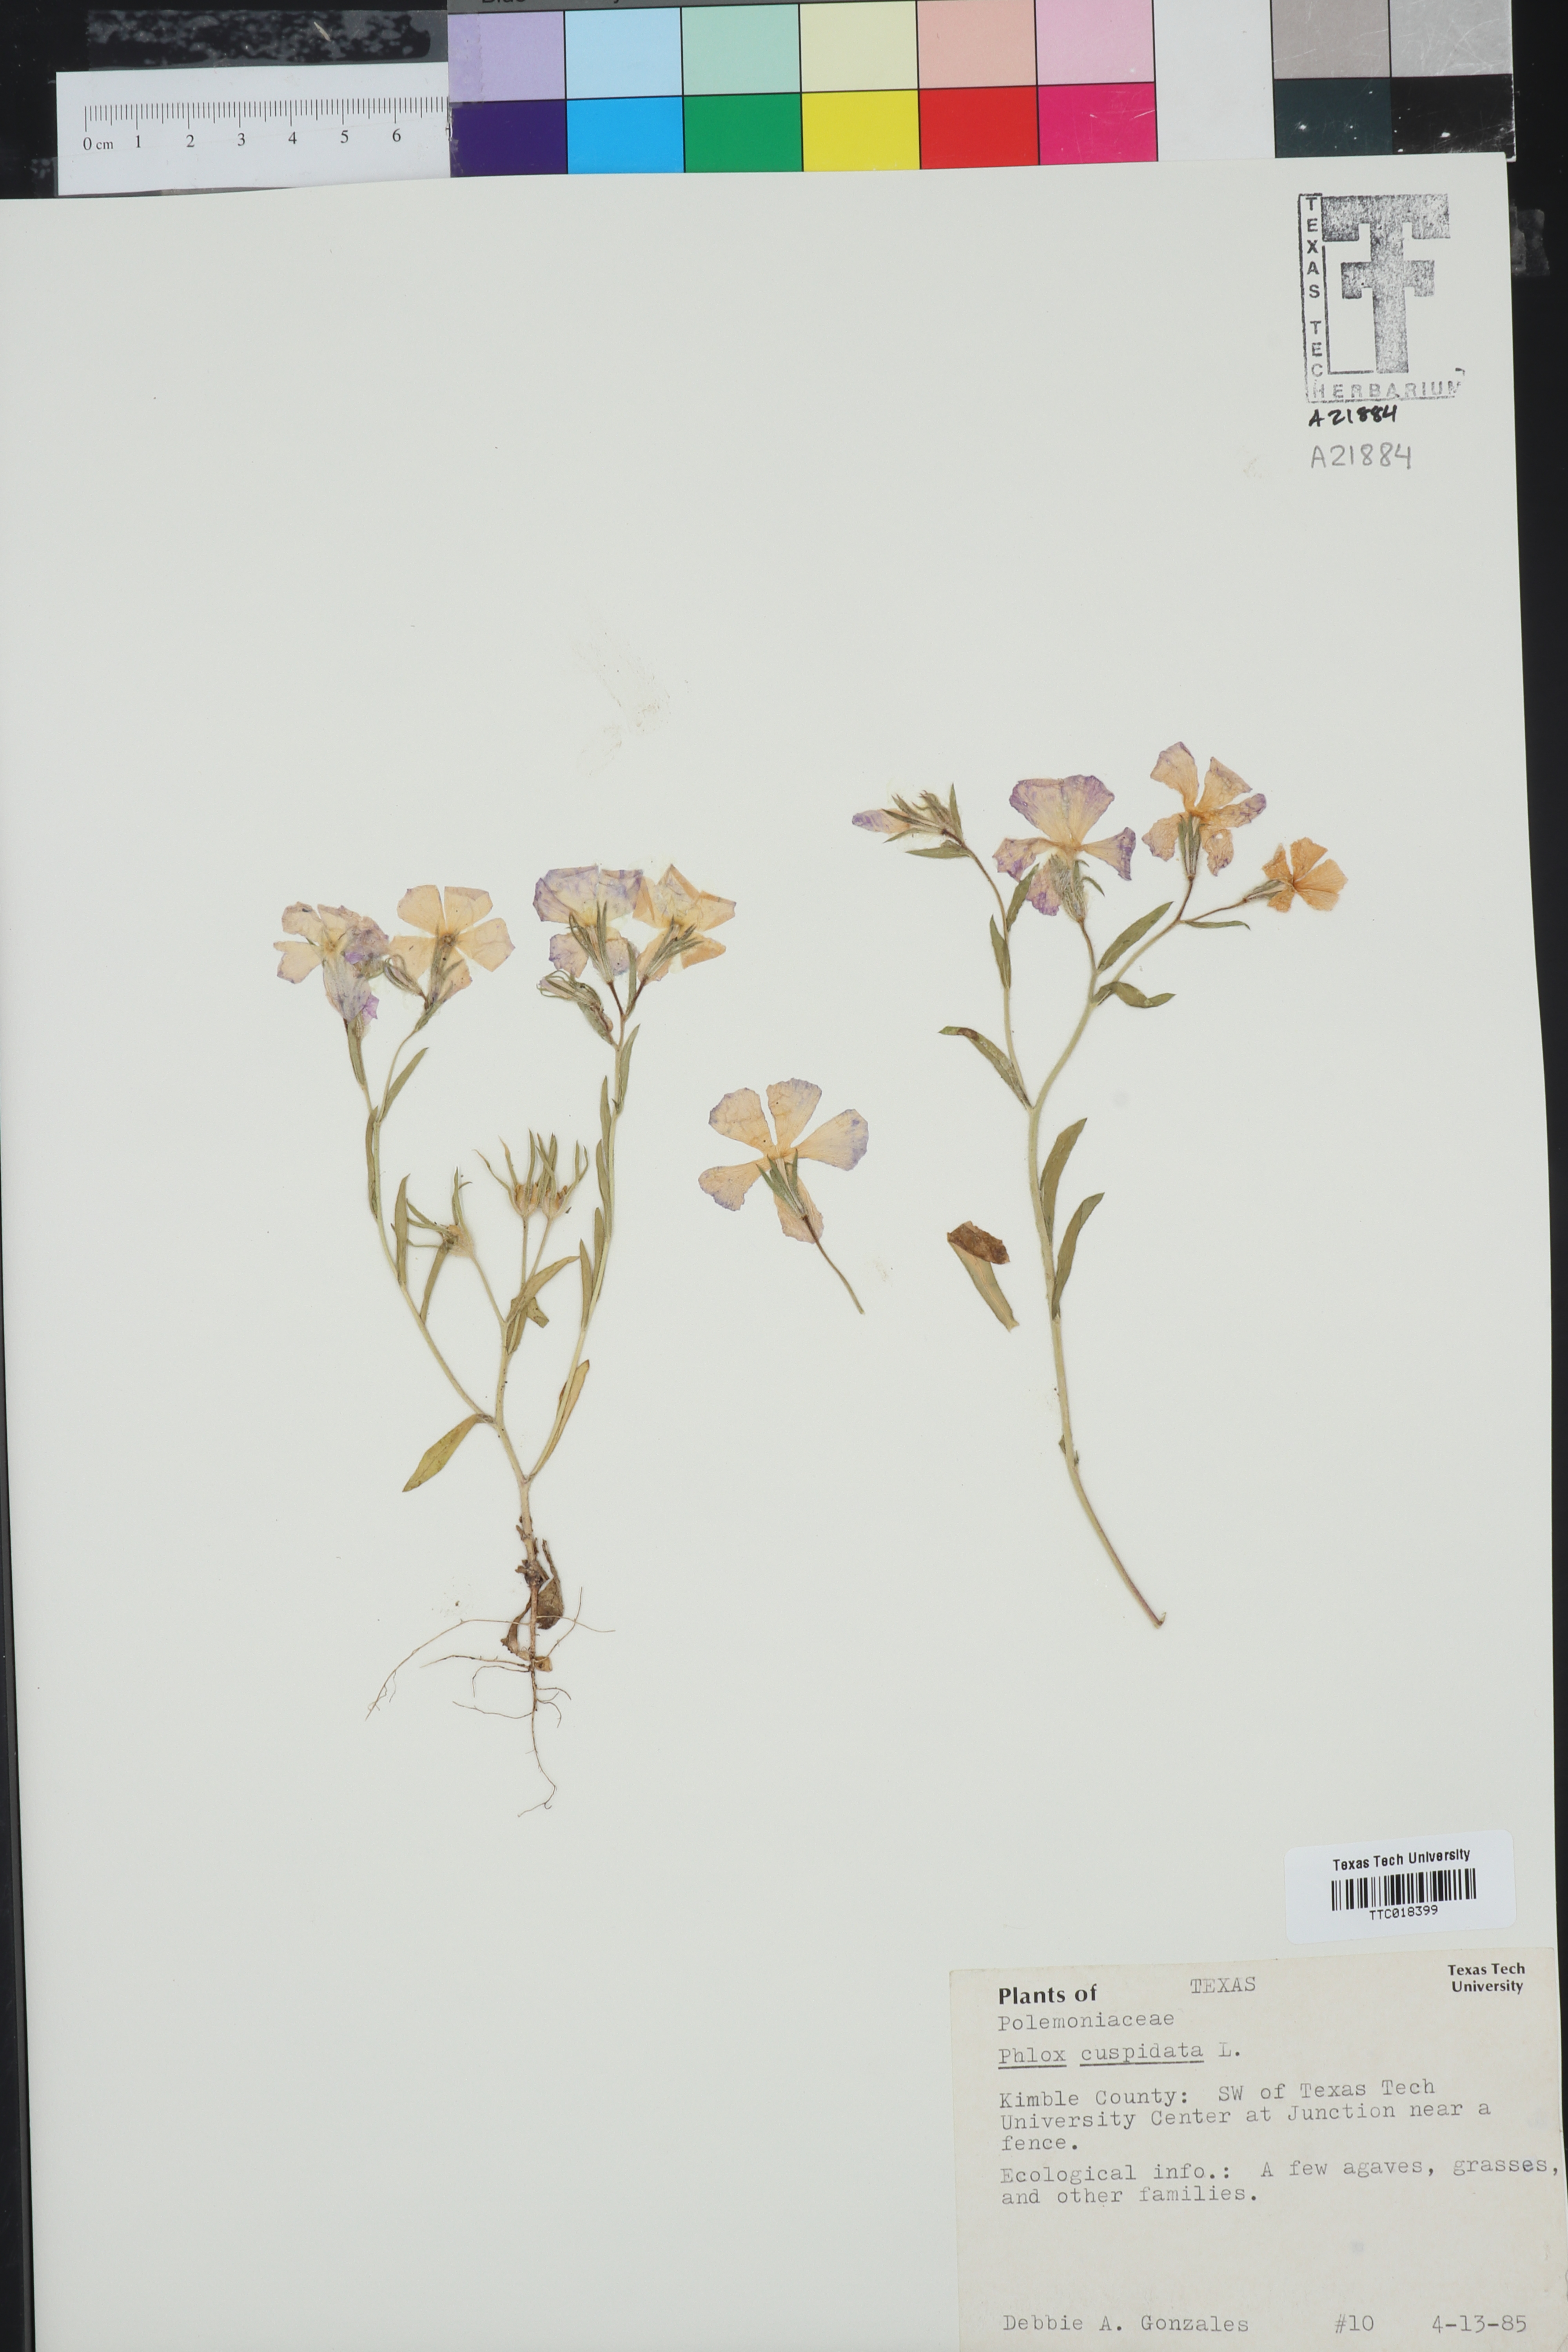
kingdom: Plantae
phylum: Tracheophyta
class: Magnoliopsida
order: Ericales
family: Polemoniaceae
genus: Phlox
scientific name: Phlox cuspidata
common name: Pointed phlox
